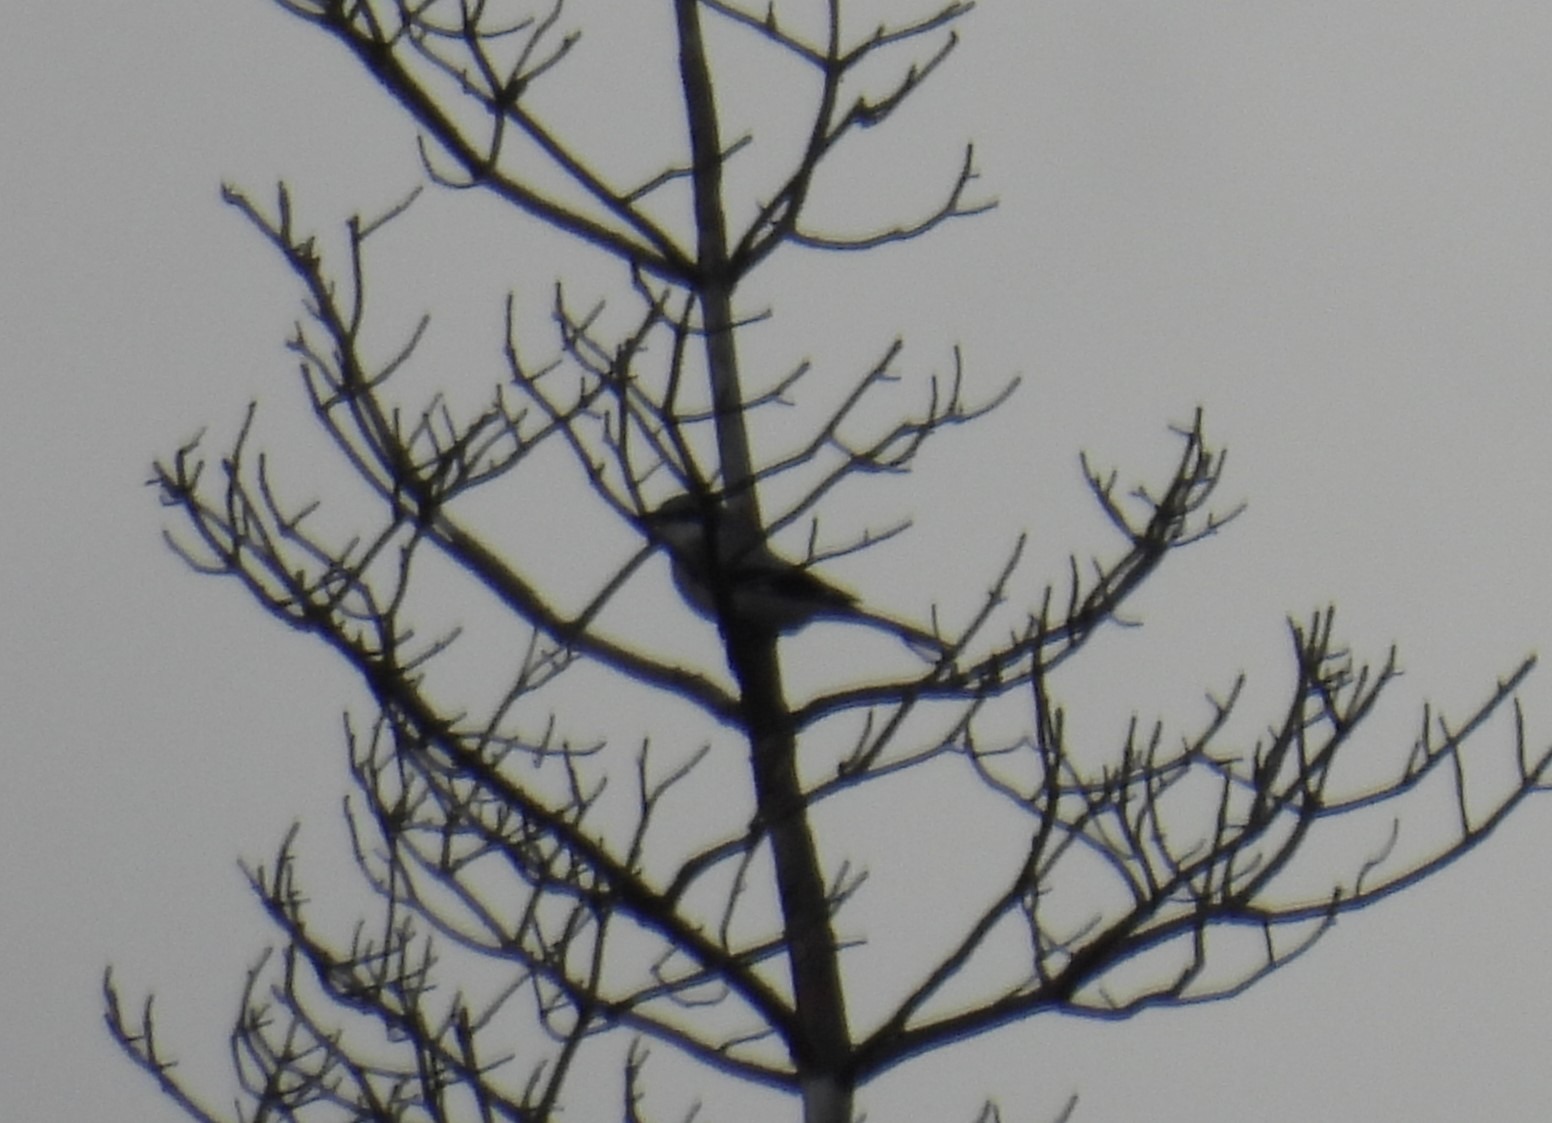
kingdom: Animalia
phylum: Chordata
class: Aves
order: Passeriformes
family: Laniidae
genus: Lanius
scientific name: Lanius excubitor
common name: Stor tornskade
